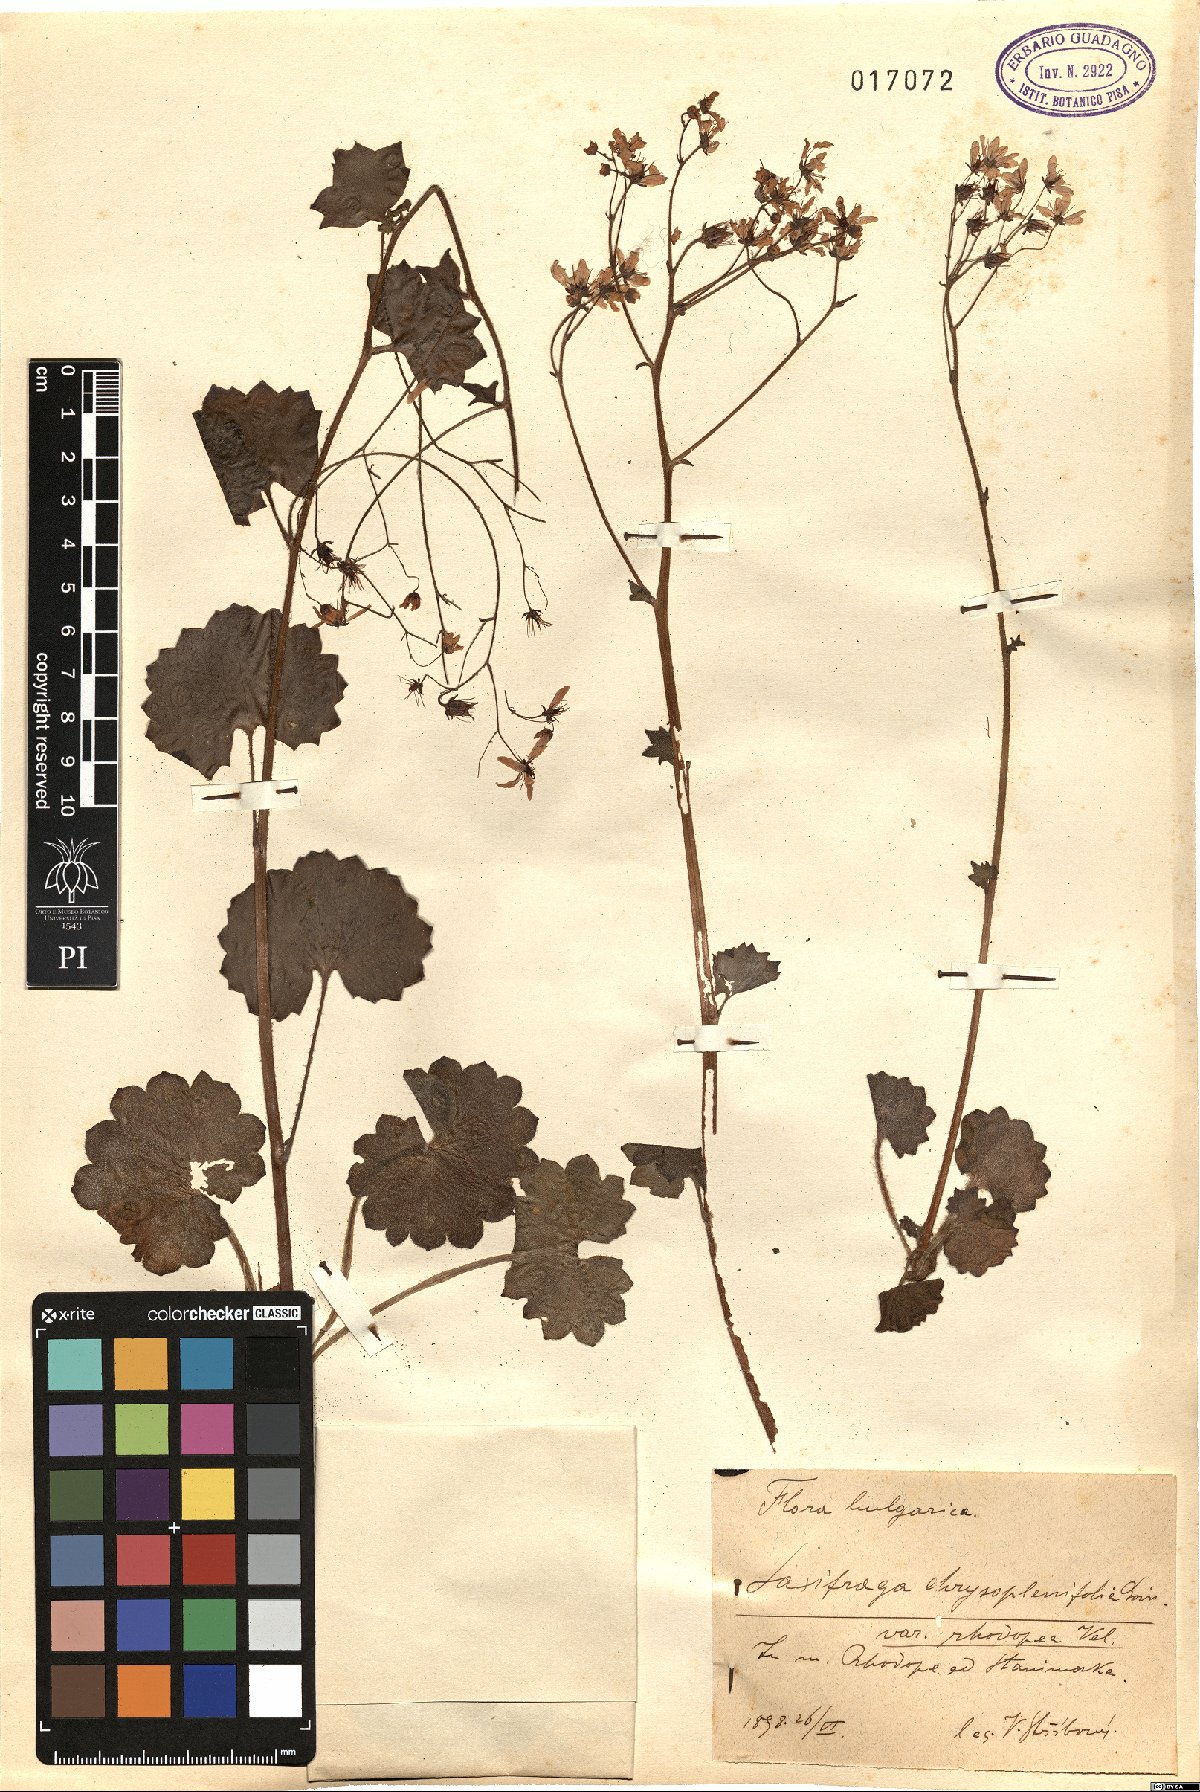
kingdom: Plantae
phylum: Tracheophyta
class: Magnoliopsida
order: Saxifragales
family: Saxifragaceae
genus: Saxifraga
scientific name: Saxifraga rotundifolia
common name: Round-leaved saxifrage
